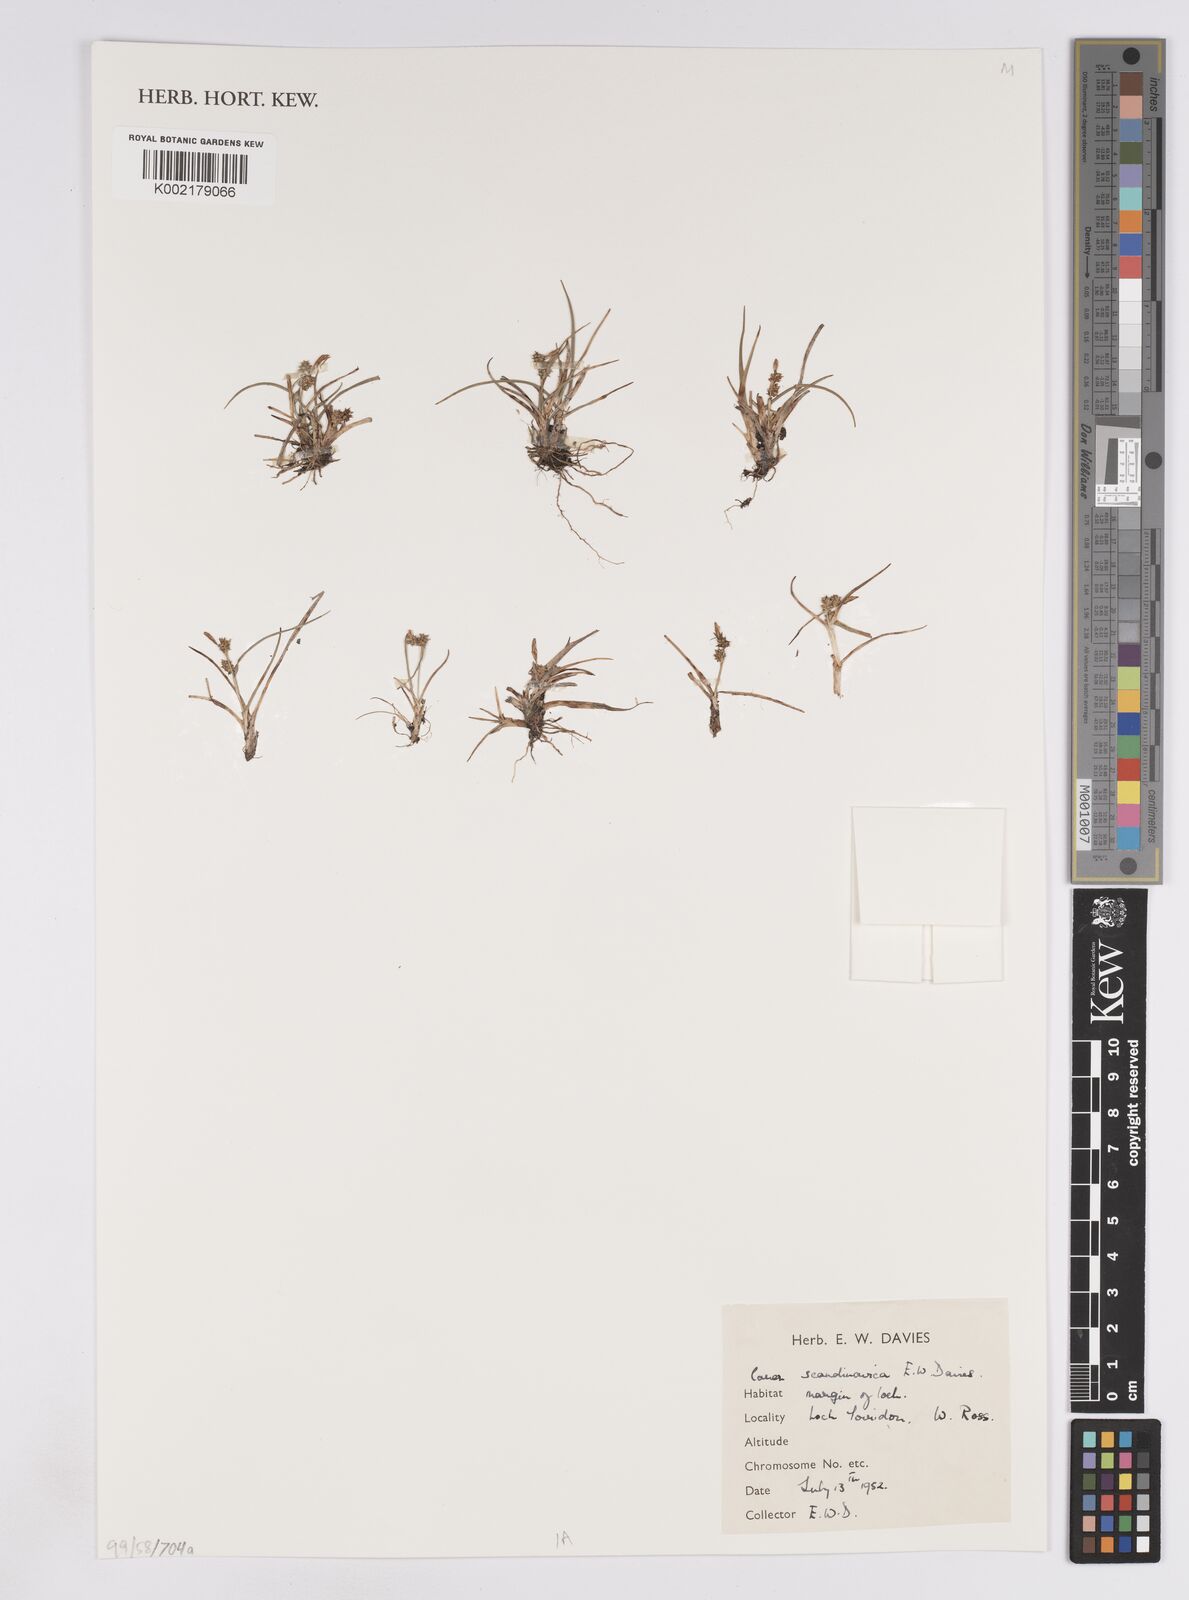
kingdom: Plantae
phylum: Tracheophyta
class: Liliopsida
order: Poales
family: Cyperaceae
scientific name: Cyperaceae
